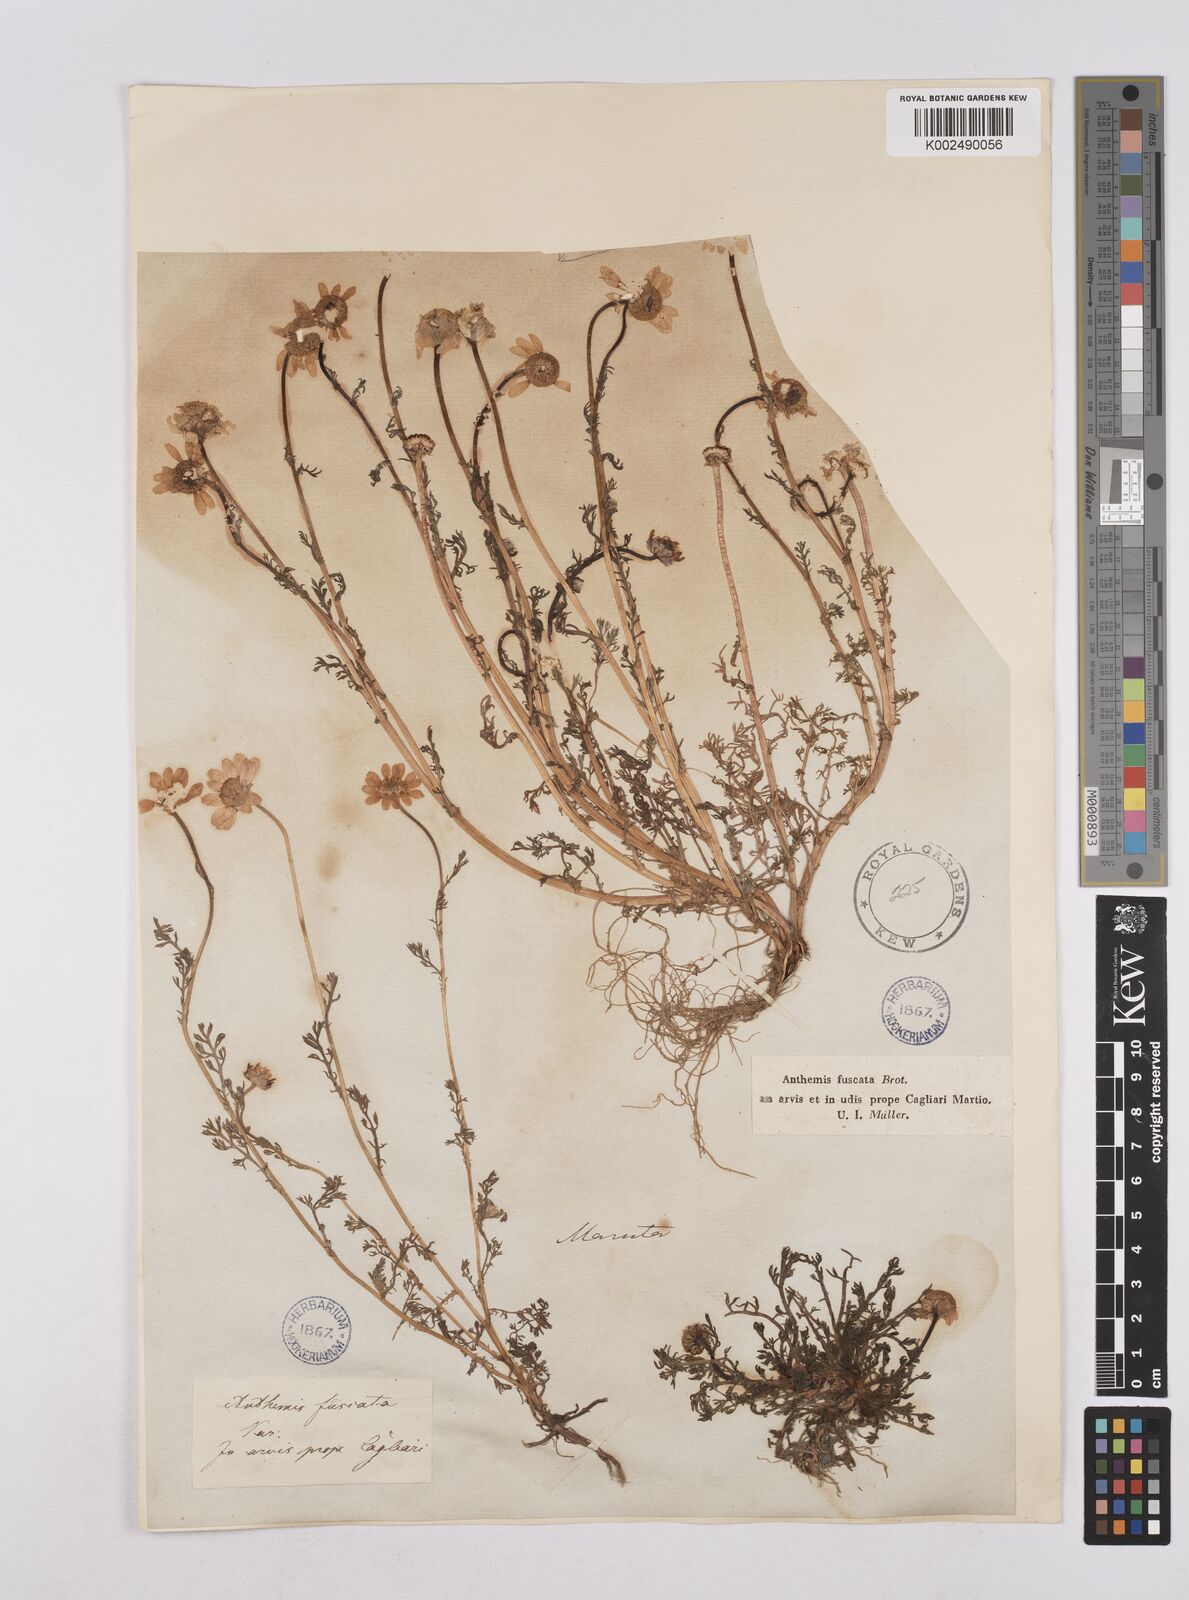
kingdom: Plantae
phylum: Tracheophyta
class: Magnoliopsida
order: Asterales
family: Asteraceae
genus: Chamaemelum
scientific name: Chamaemelum fuscatum
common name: Chamomile
